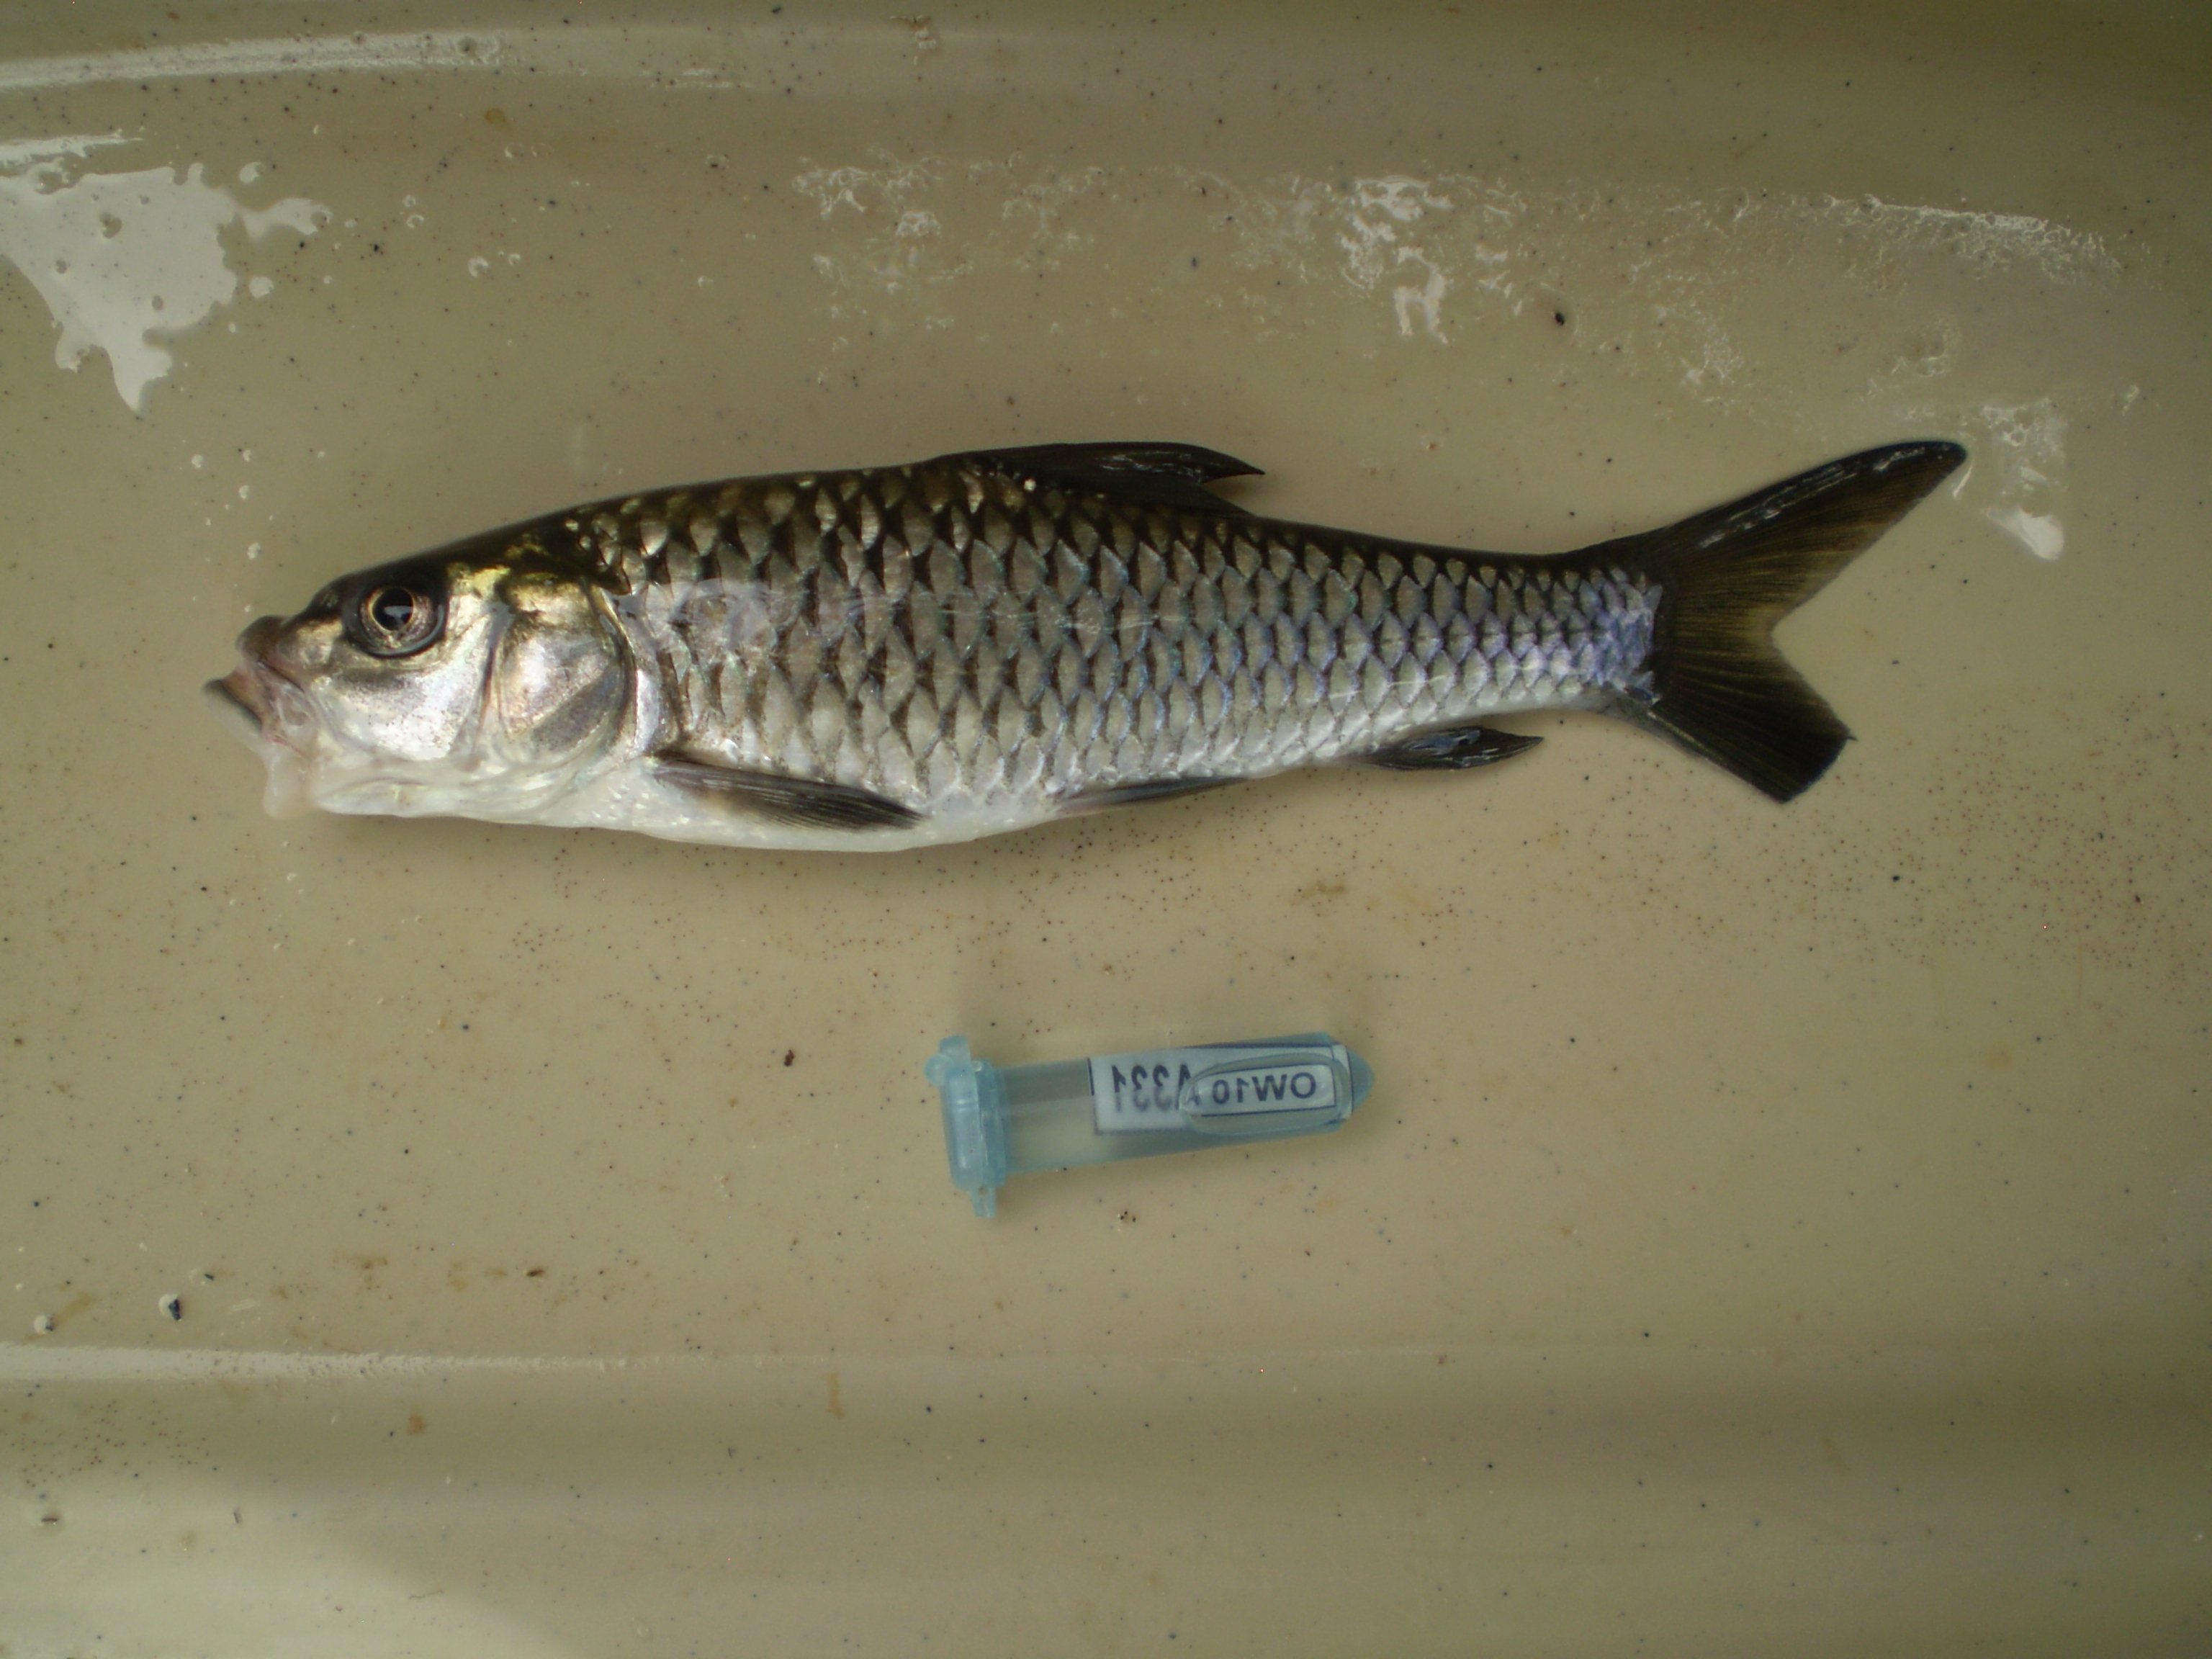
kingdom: Animalia
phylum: Chordata
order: Cypriniformes
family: Cyprinidae
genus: Labeobarbus
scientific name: Labeobarbus trachypterus
